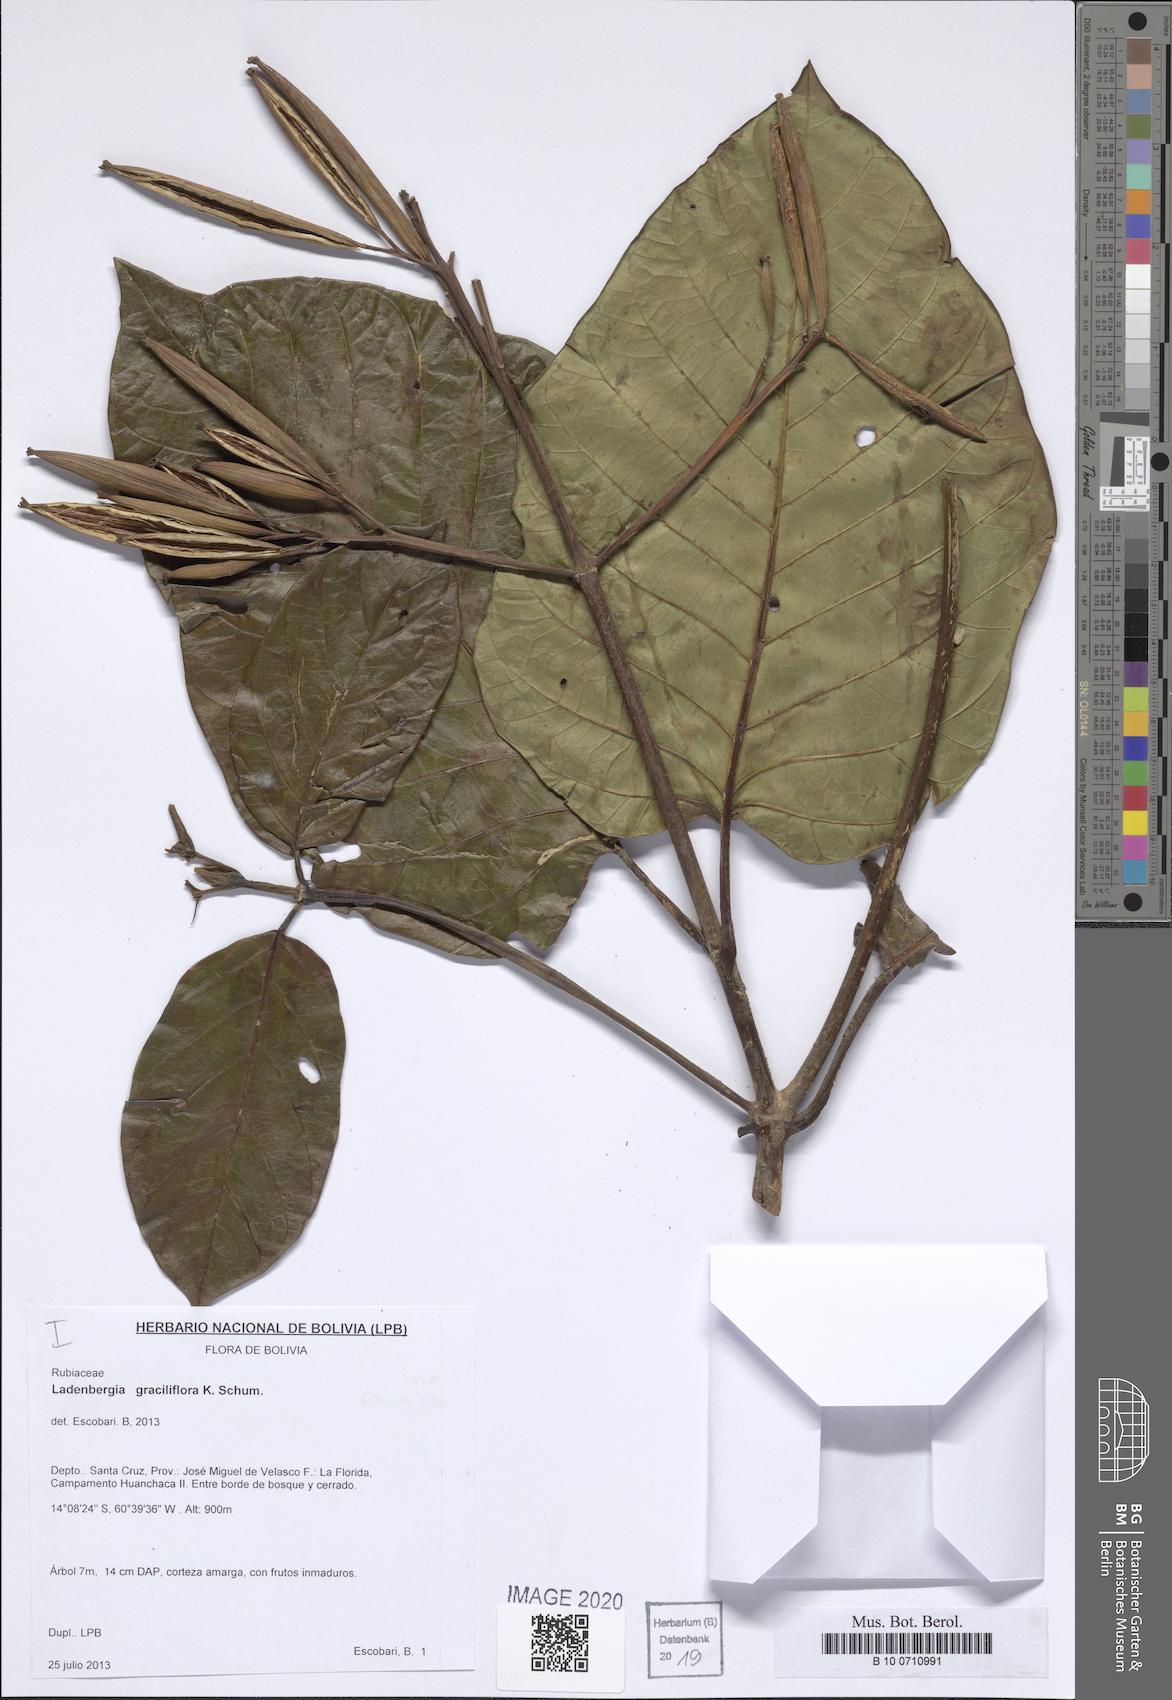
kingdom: Plantae
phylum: Tracheophyta
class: Magnoliopsida
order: Gentianales
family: Rubiaceae
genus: Ladenbergia
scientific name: Ladenbergia graciliflora
